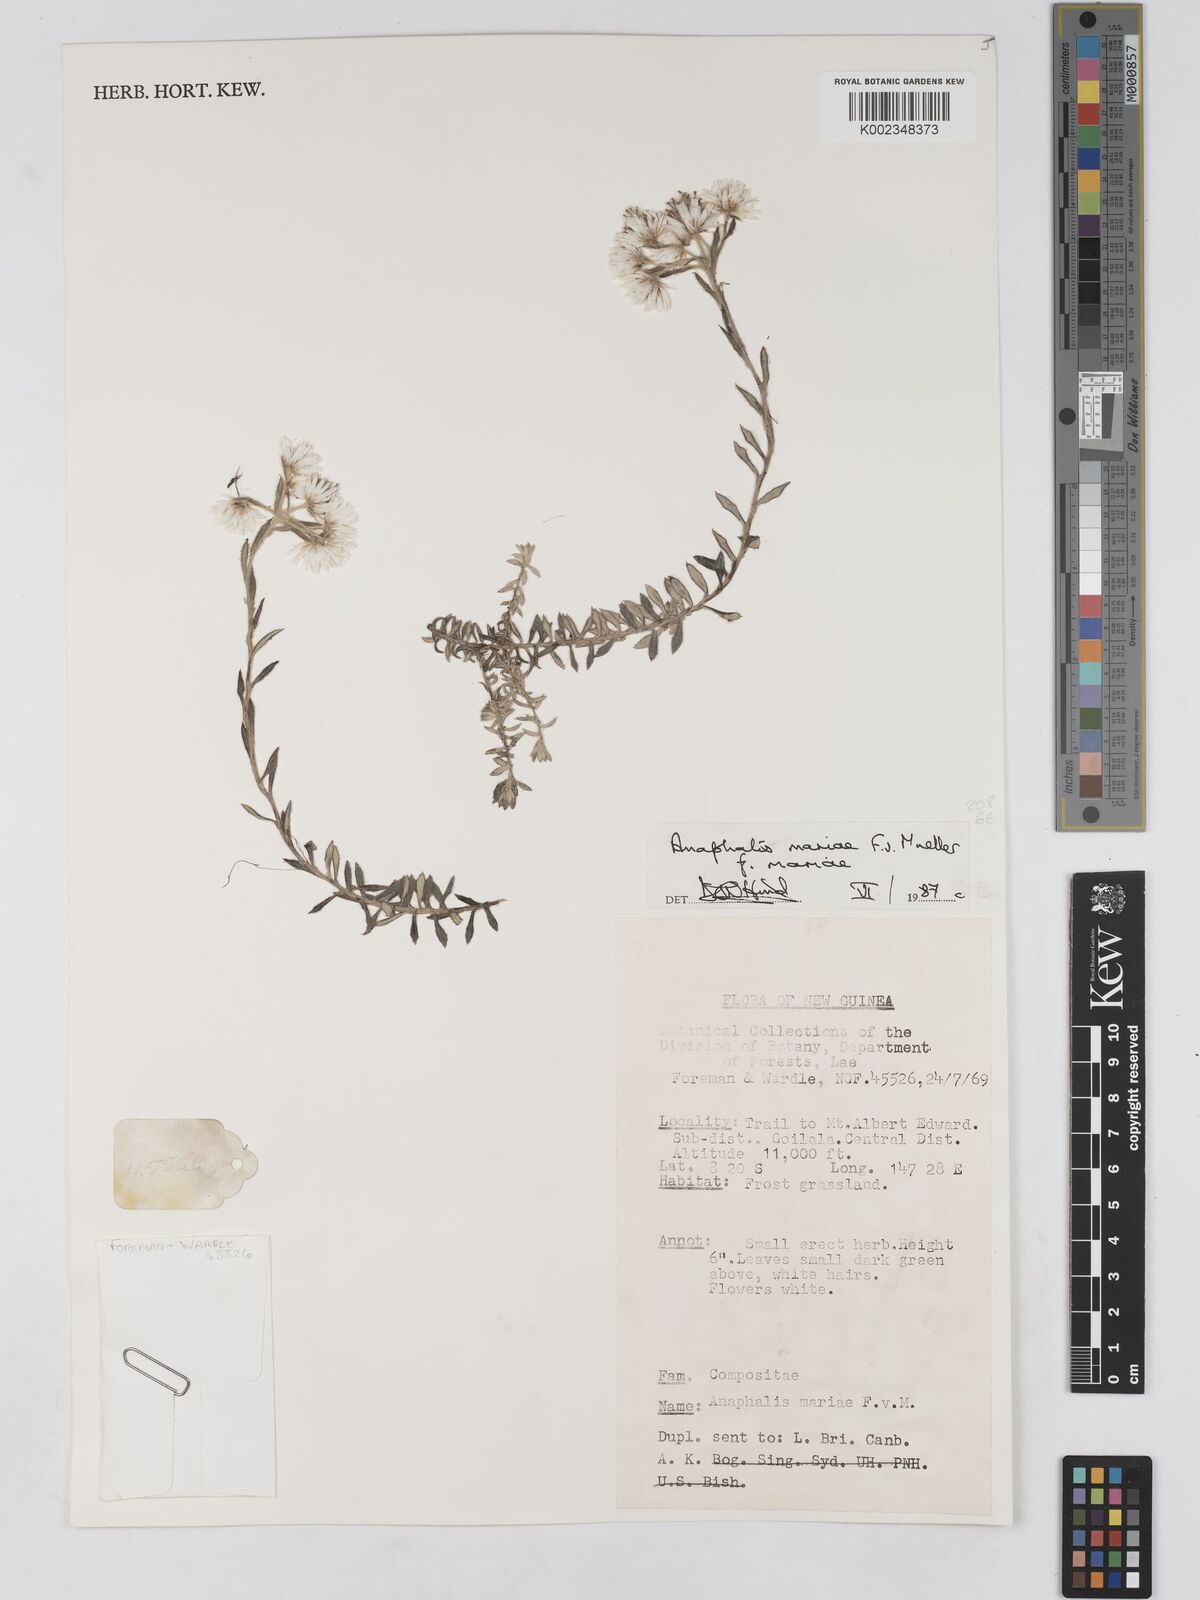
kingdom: Plantae
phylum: Tracheophyta
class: Magnoliopsida
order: Asterales
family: Asteraceae
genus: Anaphalioides
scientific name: Anaphalioides mariae
